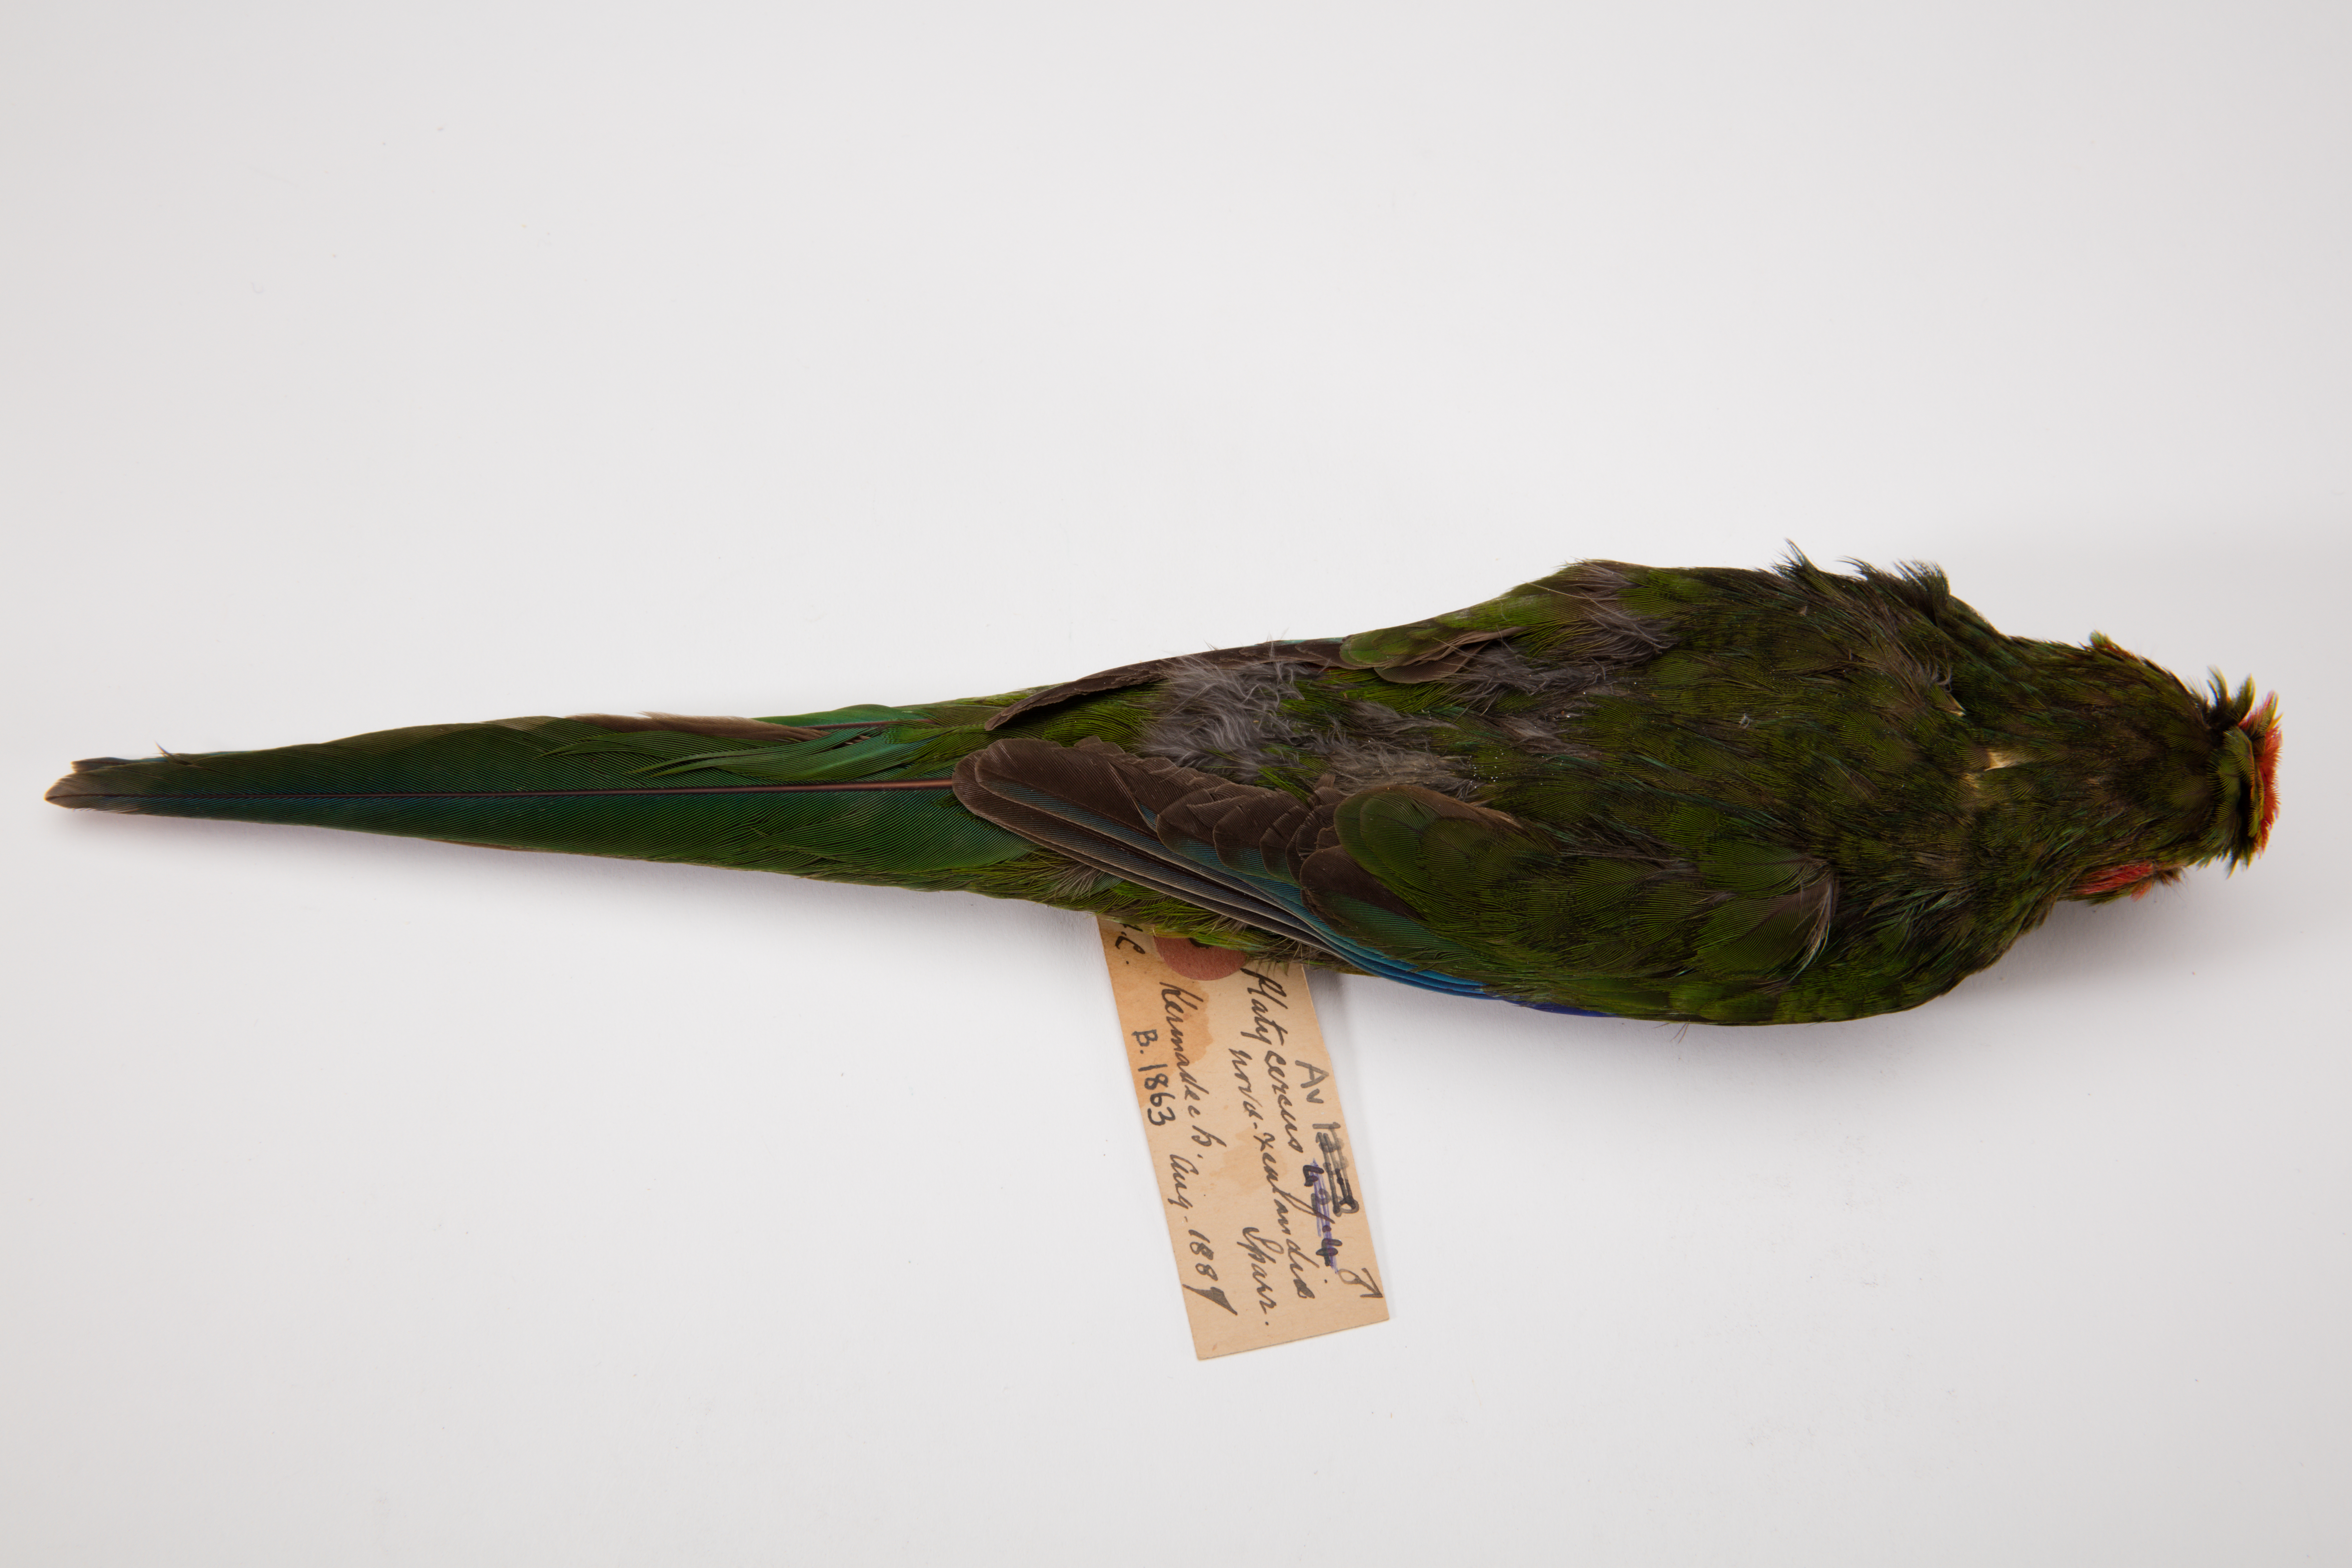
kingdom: Animalia
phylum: Chordata
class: Aves
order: Psittaciformes
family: Psittacidae
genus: Cyanoramphus
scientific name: Cyanoramphus novaezelandiae
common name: Red-fronted parakeet
